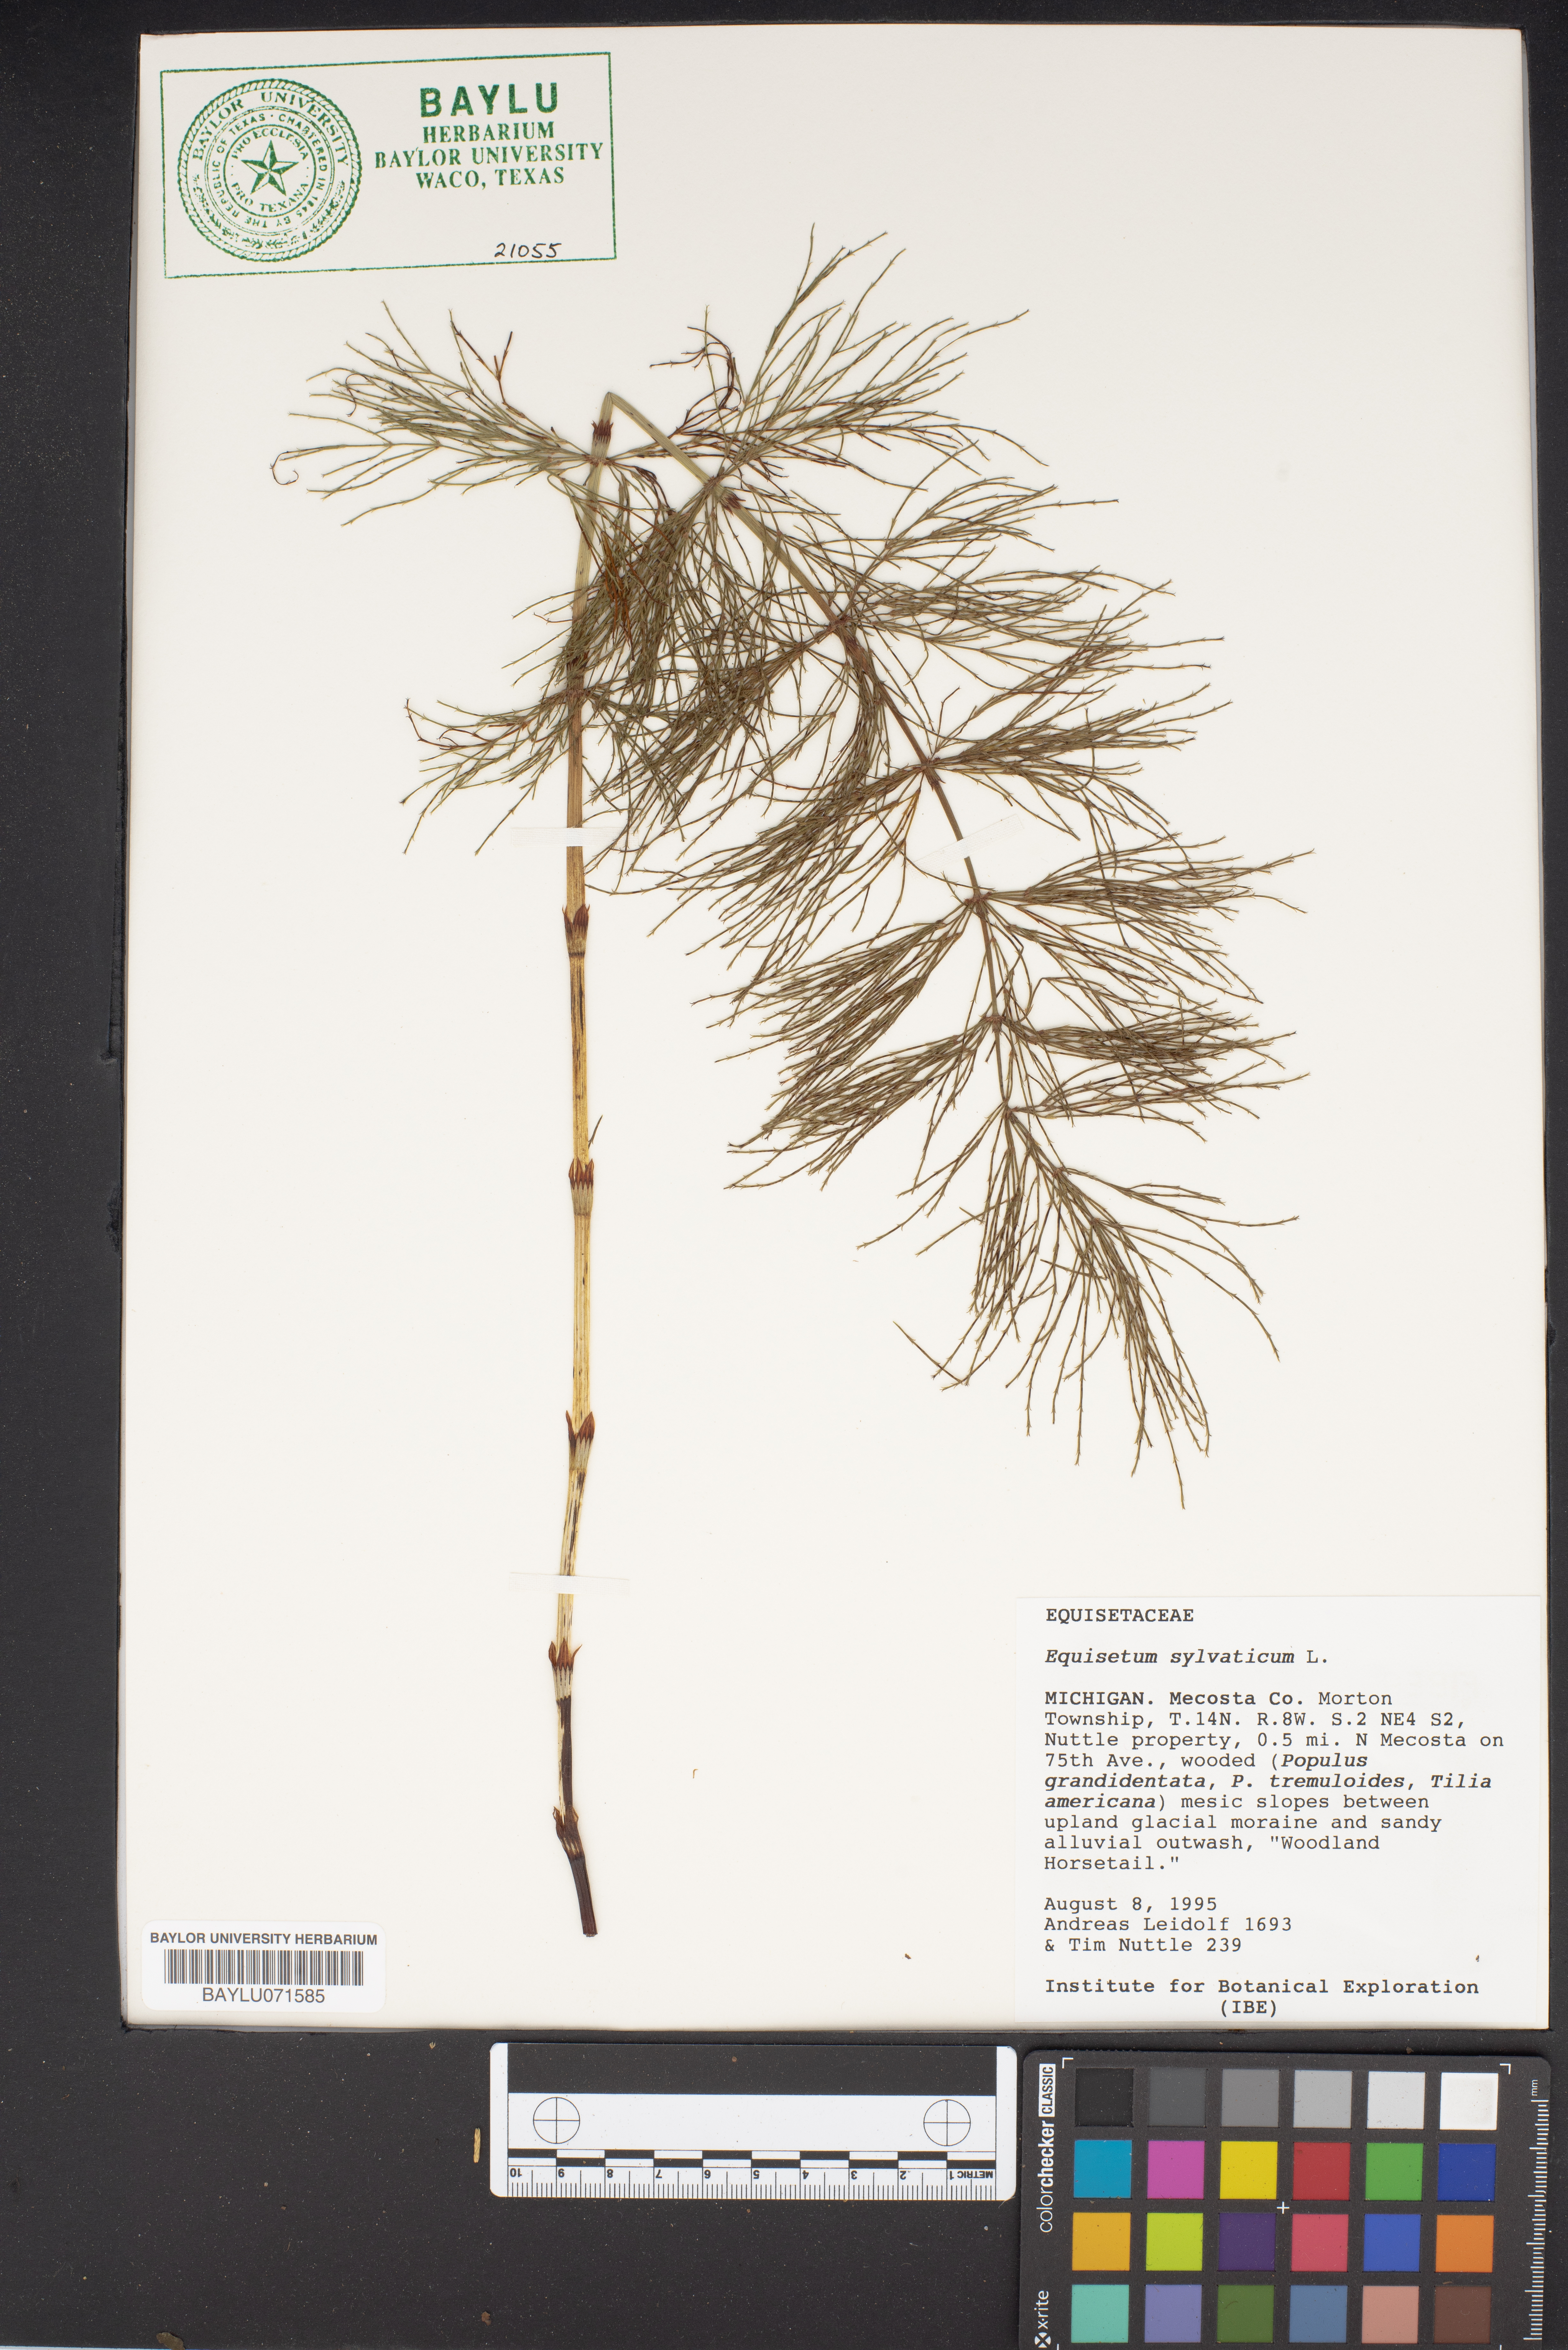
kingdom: Plantae
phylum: Tracheophyta
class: Polypodiopsida
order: Equisetales
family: Equisetaceae
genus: Equisetum
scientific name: Equisetum sylvaticum
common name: Wood horsetail
